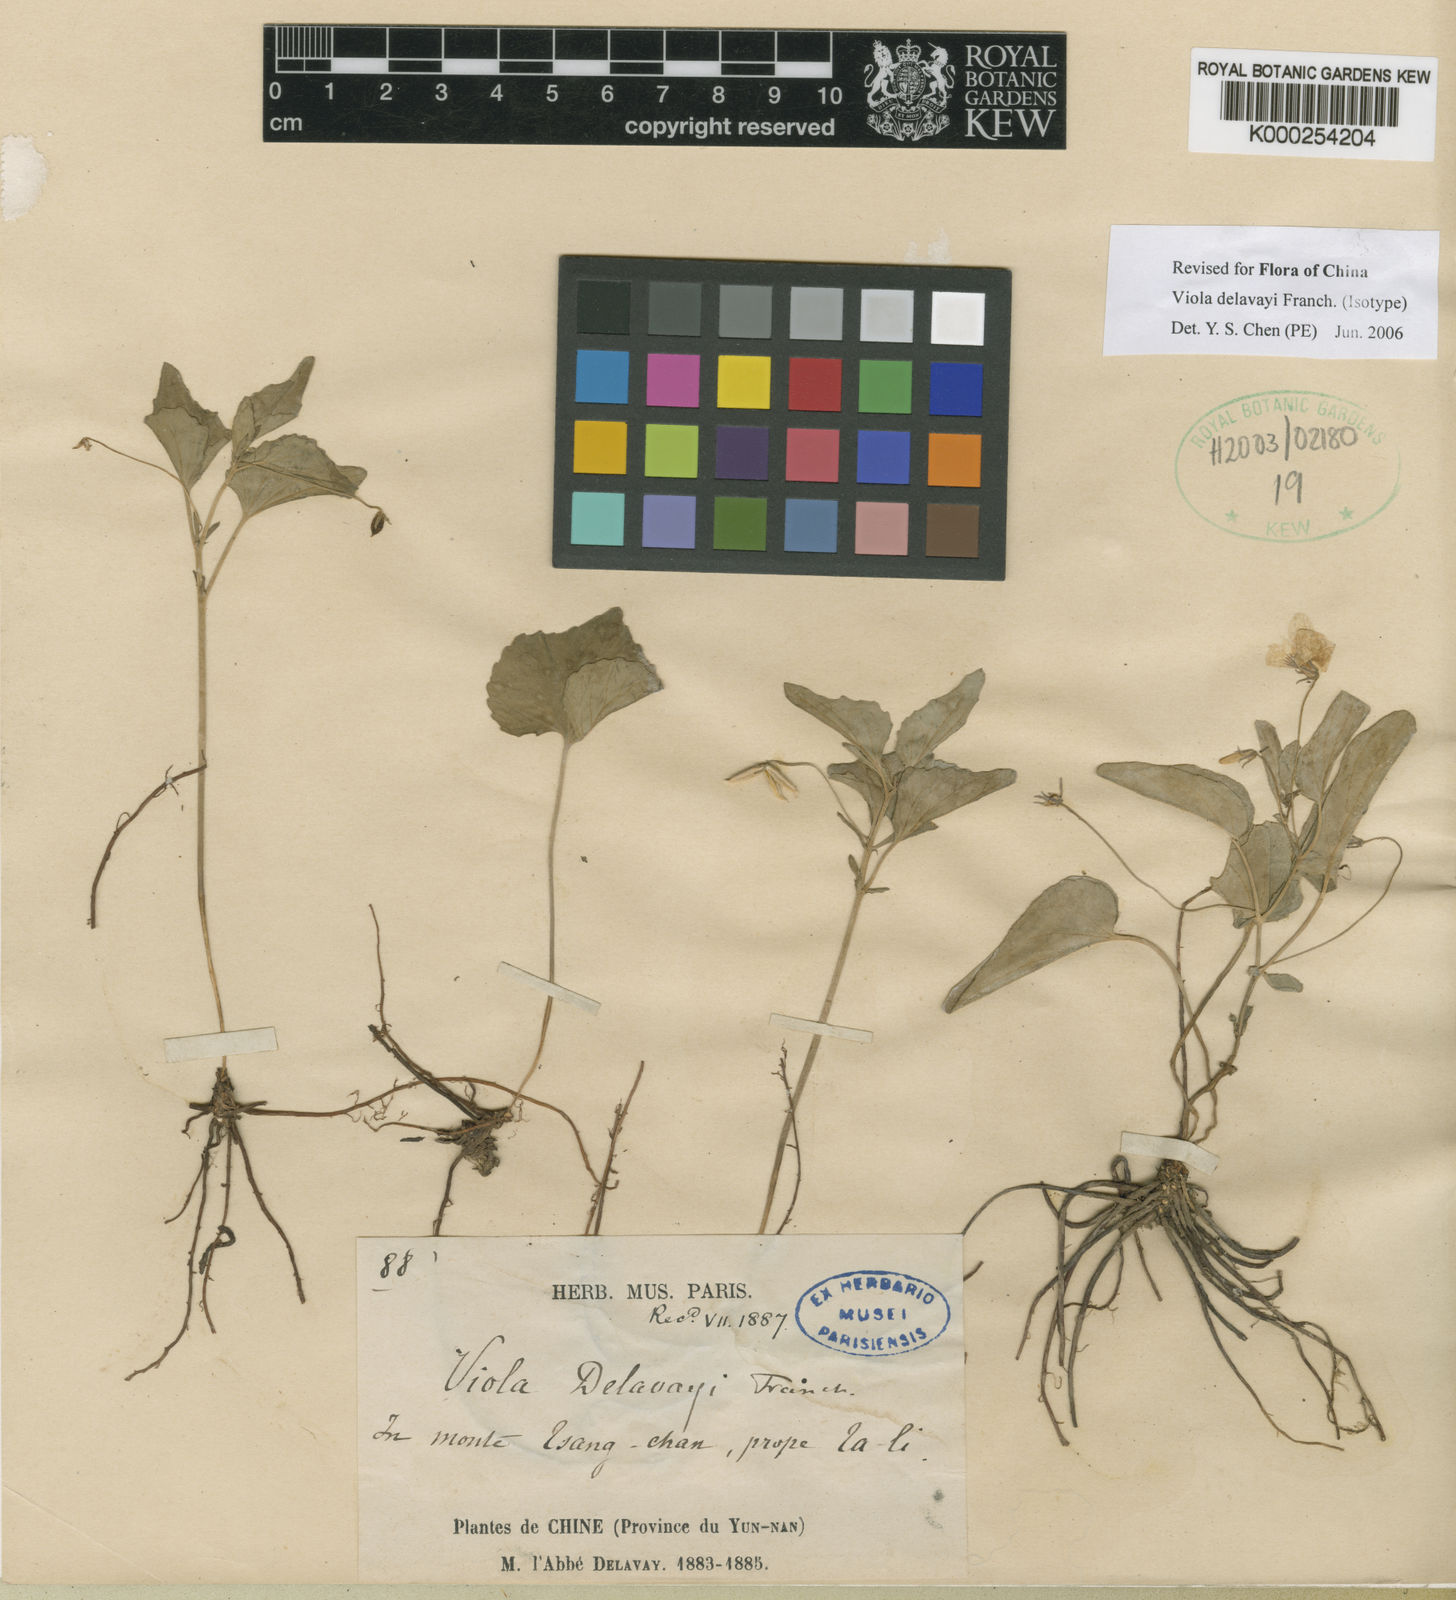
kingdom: Plantae
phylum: Tracheophyta
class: Magnoliopsida
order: Malpighiales
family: Violaceae
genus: Viola
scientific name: Viola delavayi
